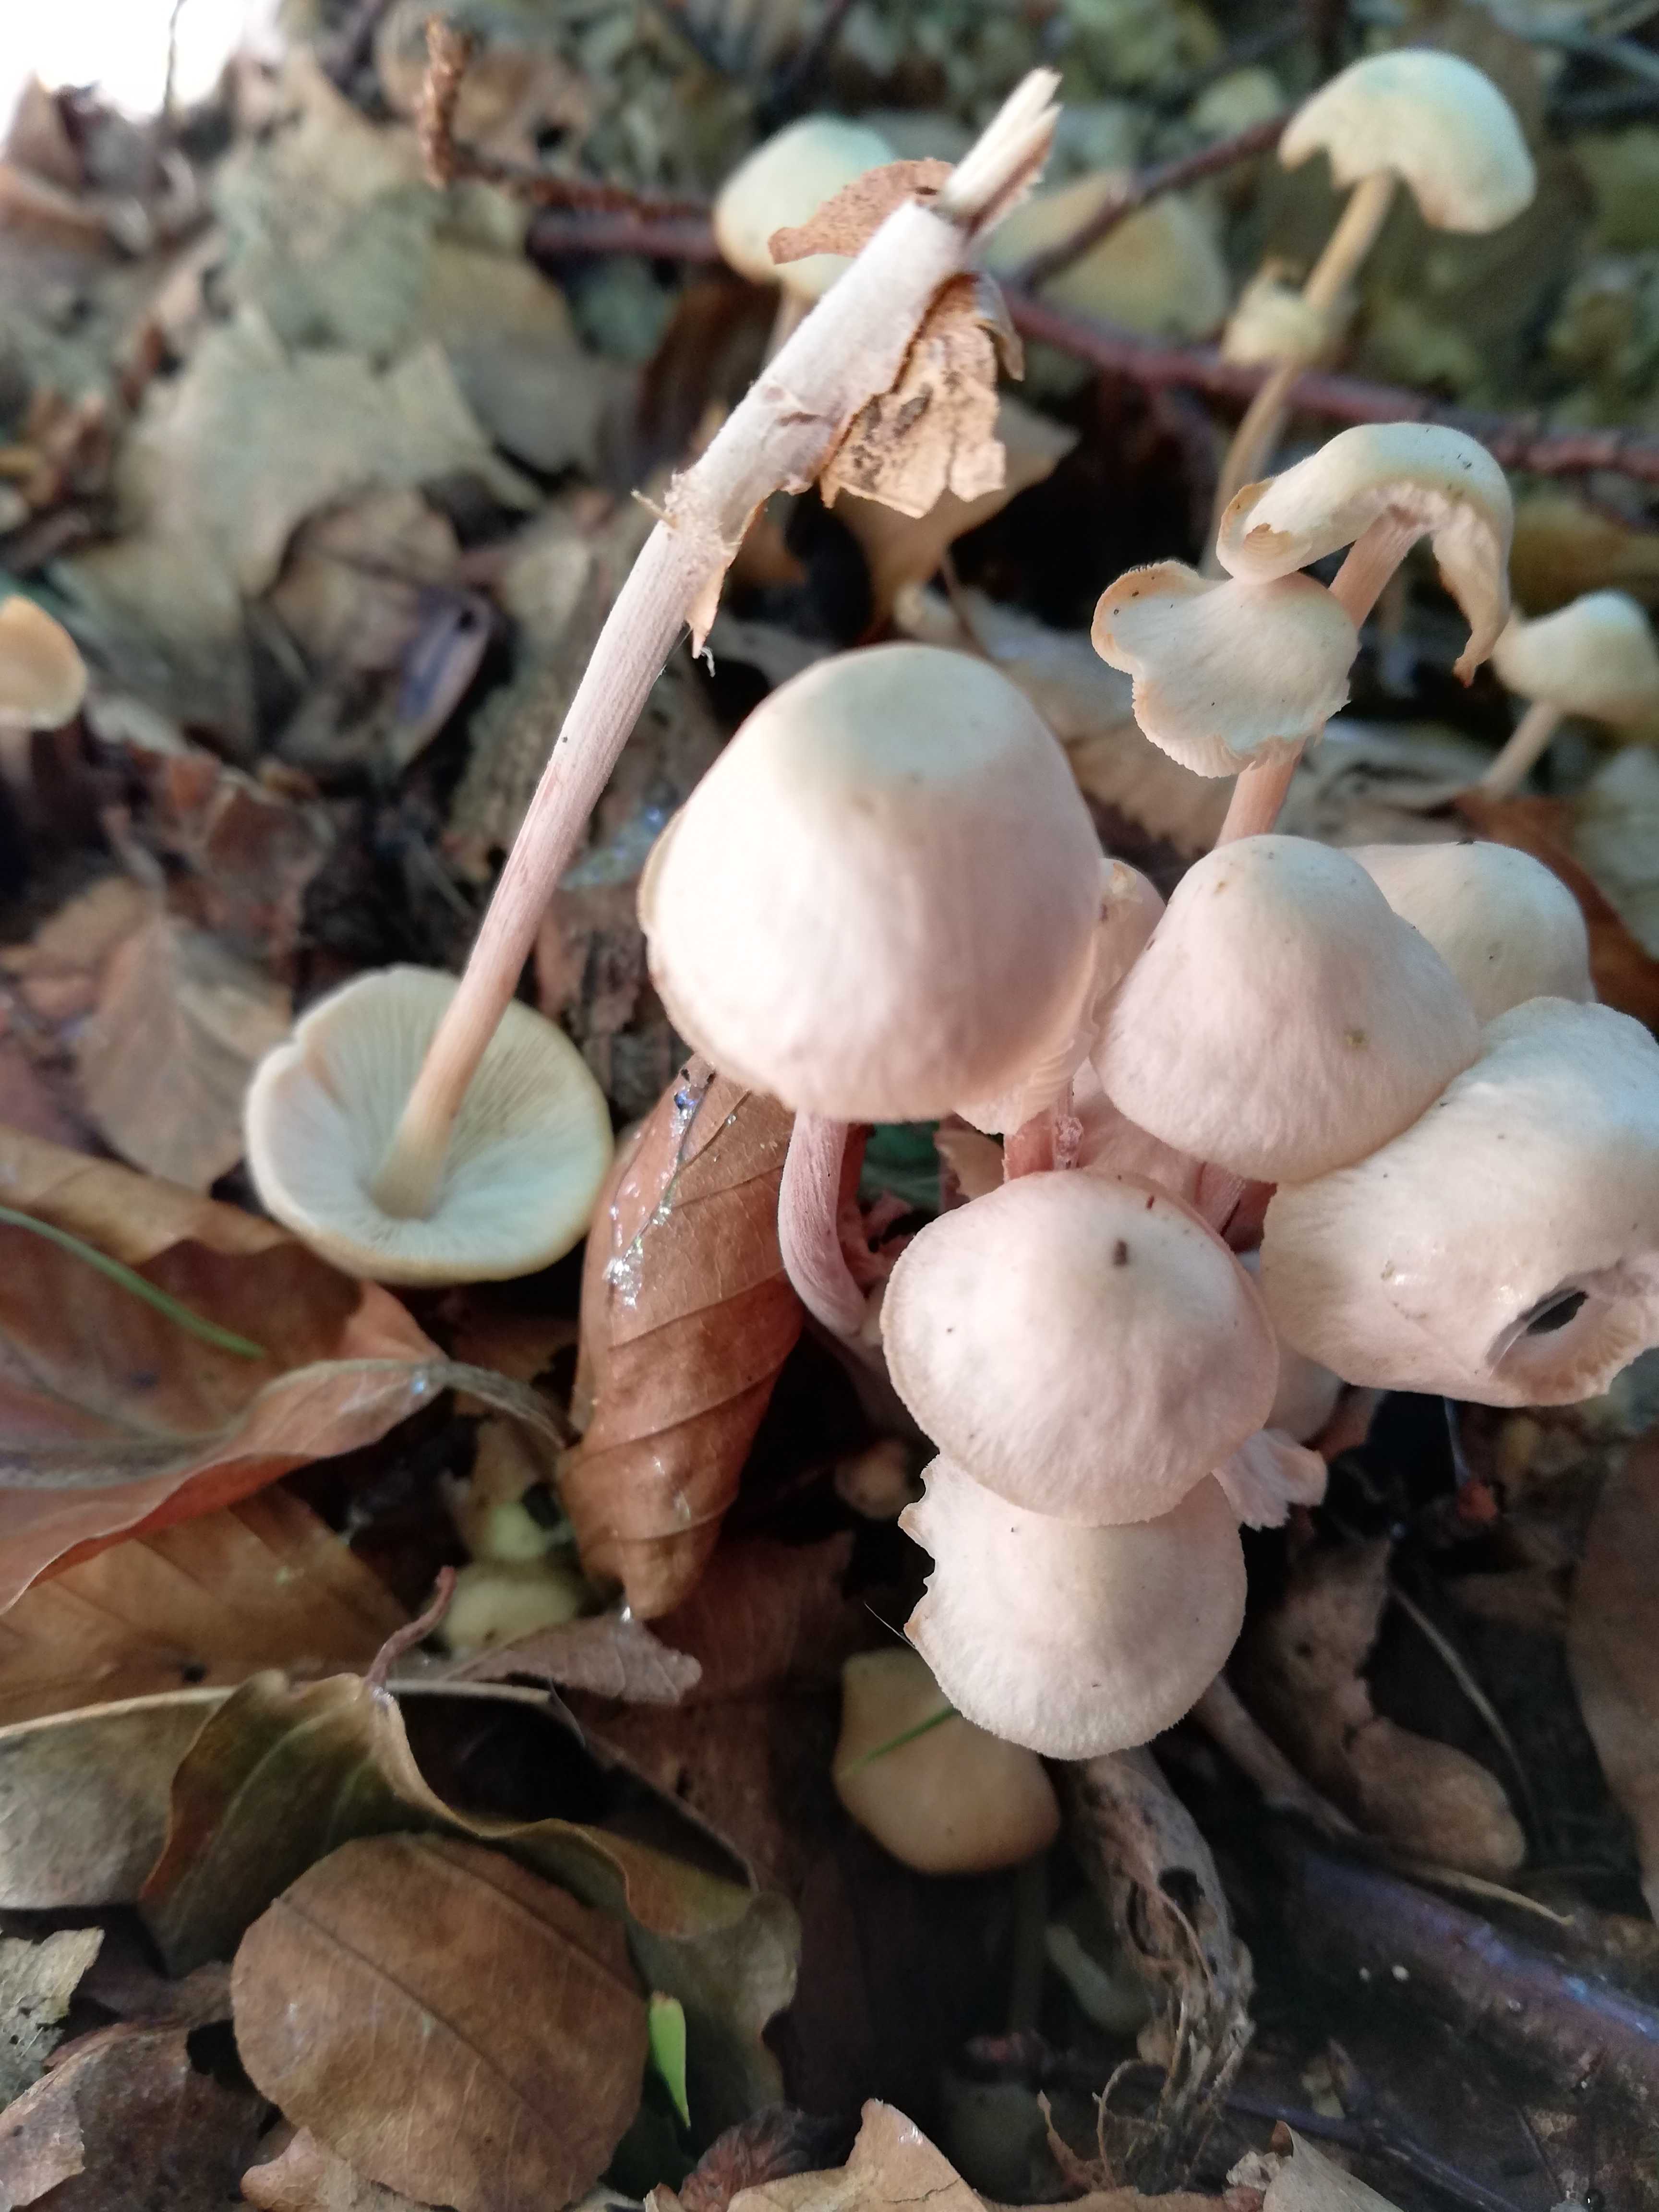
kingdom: Fungi
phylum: Basidiomycota
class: Agaricomycetes
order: Agaricales
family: Omphalotaceae
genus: Collybiopsis
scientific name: Collybiopsis confluens
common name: knippe-fladhat
